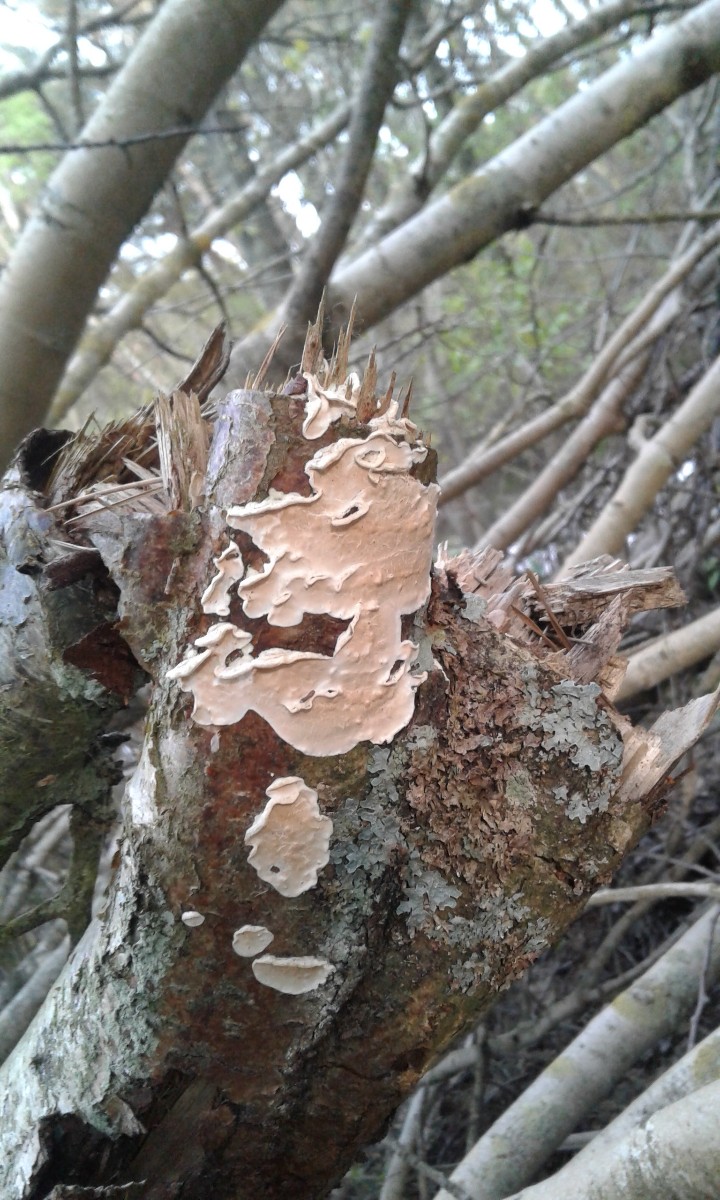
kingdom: Fungi
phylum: Basidiomycota
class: Agaricomycetes
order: Polyporales
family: Irpicaceae
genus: Byssomerulius
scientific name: Byssomerulius corium
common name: læder-åresvamp
